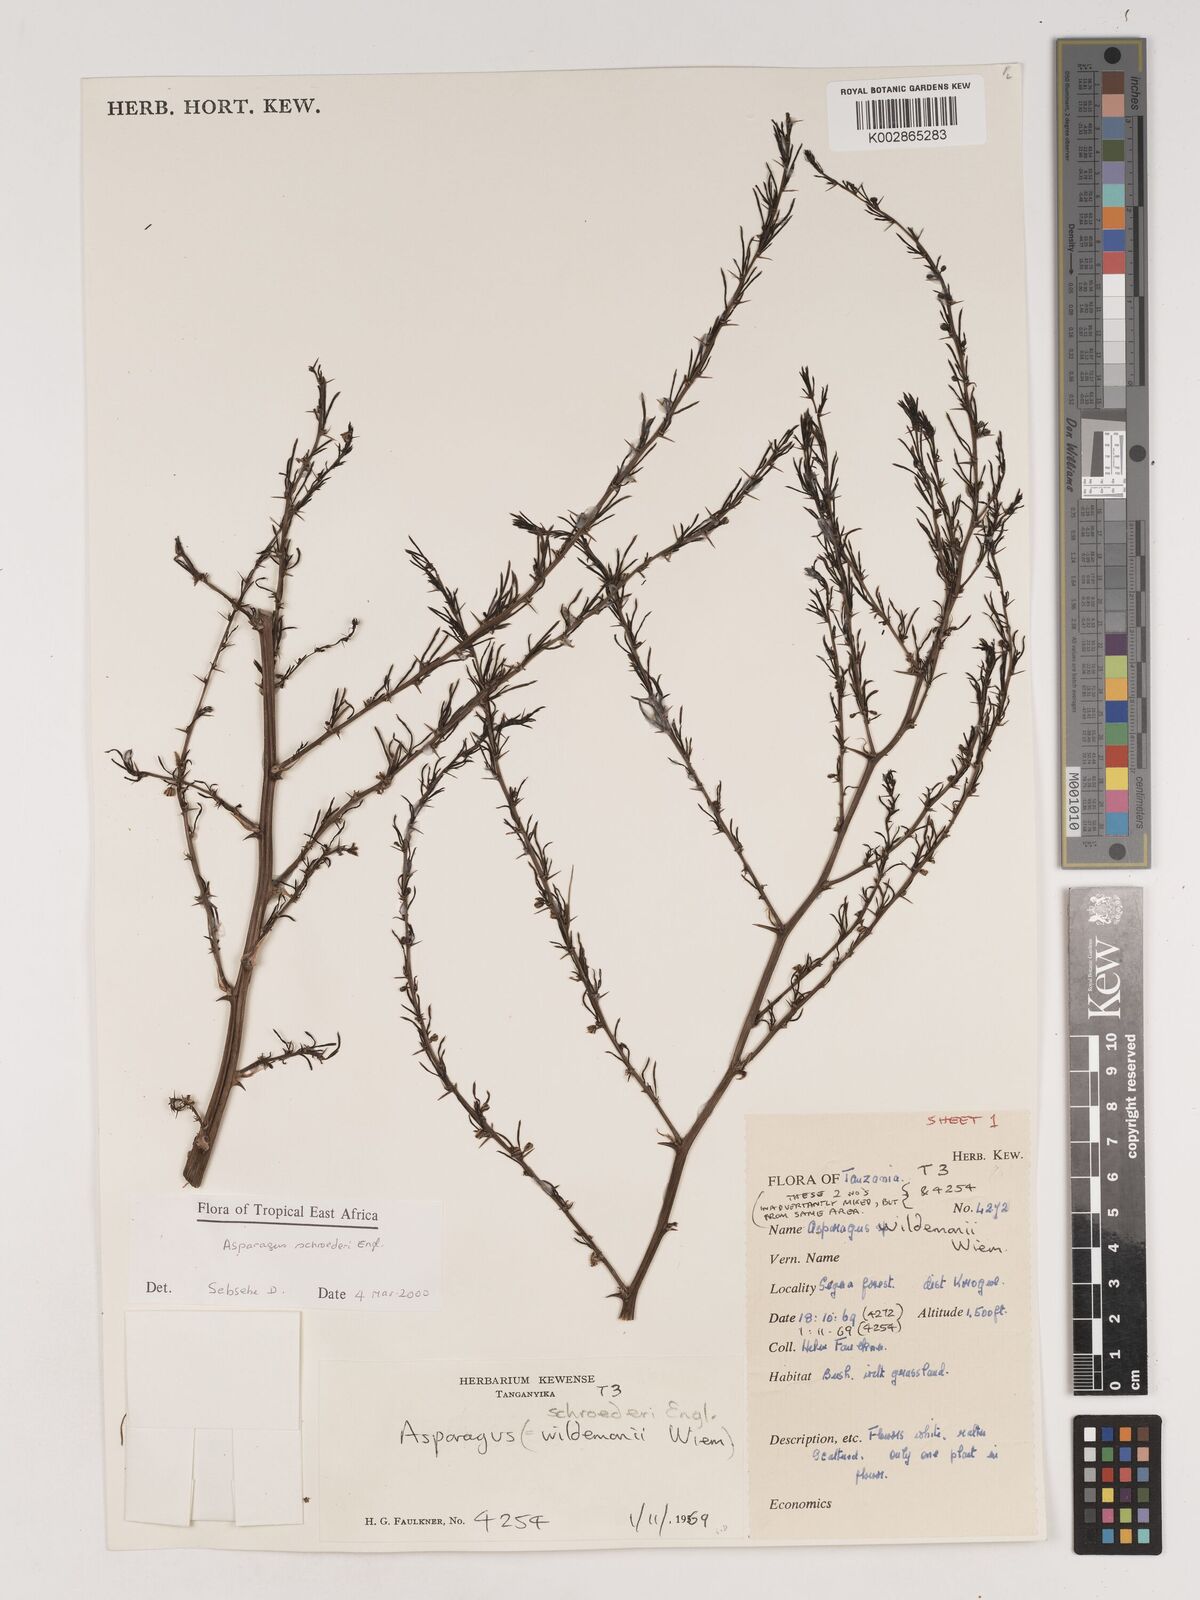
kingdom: Plantae
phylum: Tracheophyta
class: Liliopsida
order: Asparagales
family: Asparagaceae
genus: Asparagus
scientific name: Asparagus schroederi
